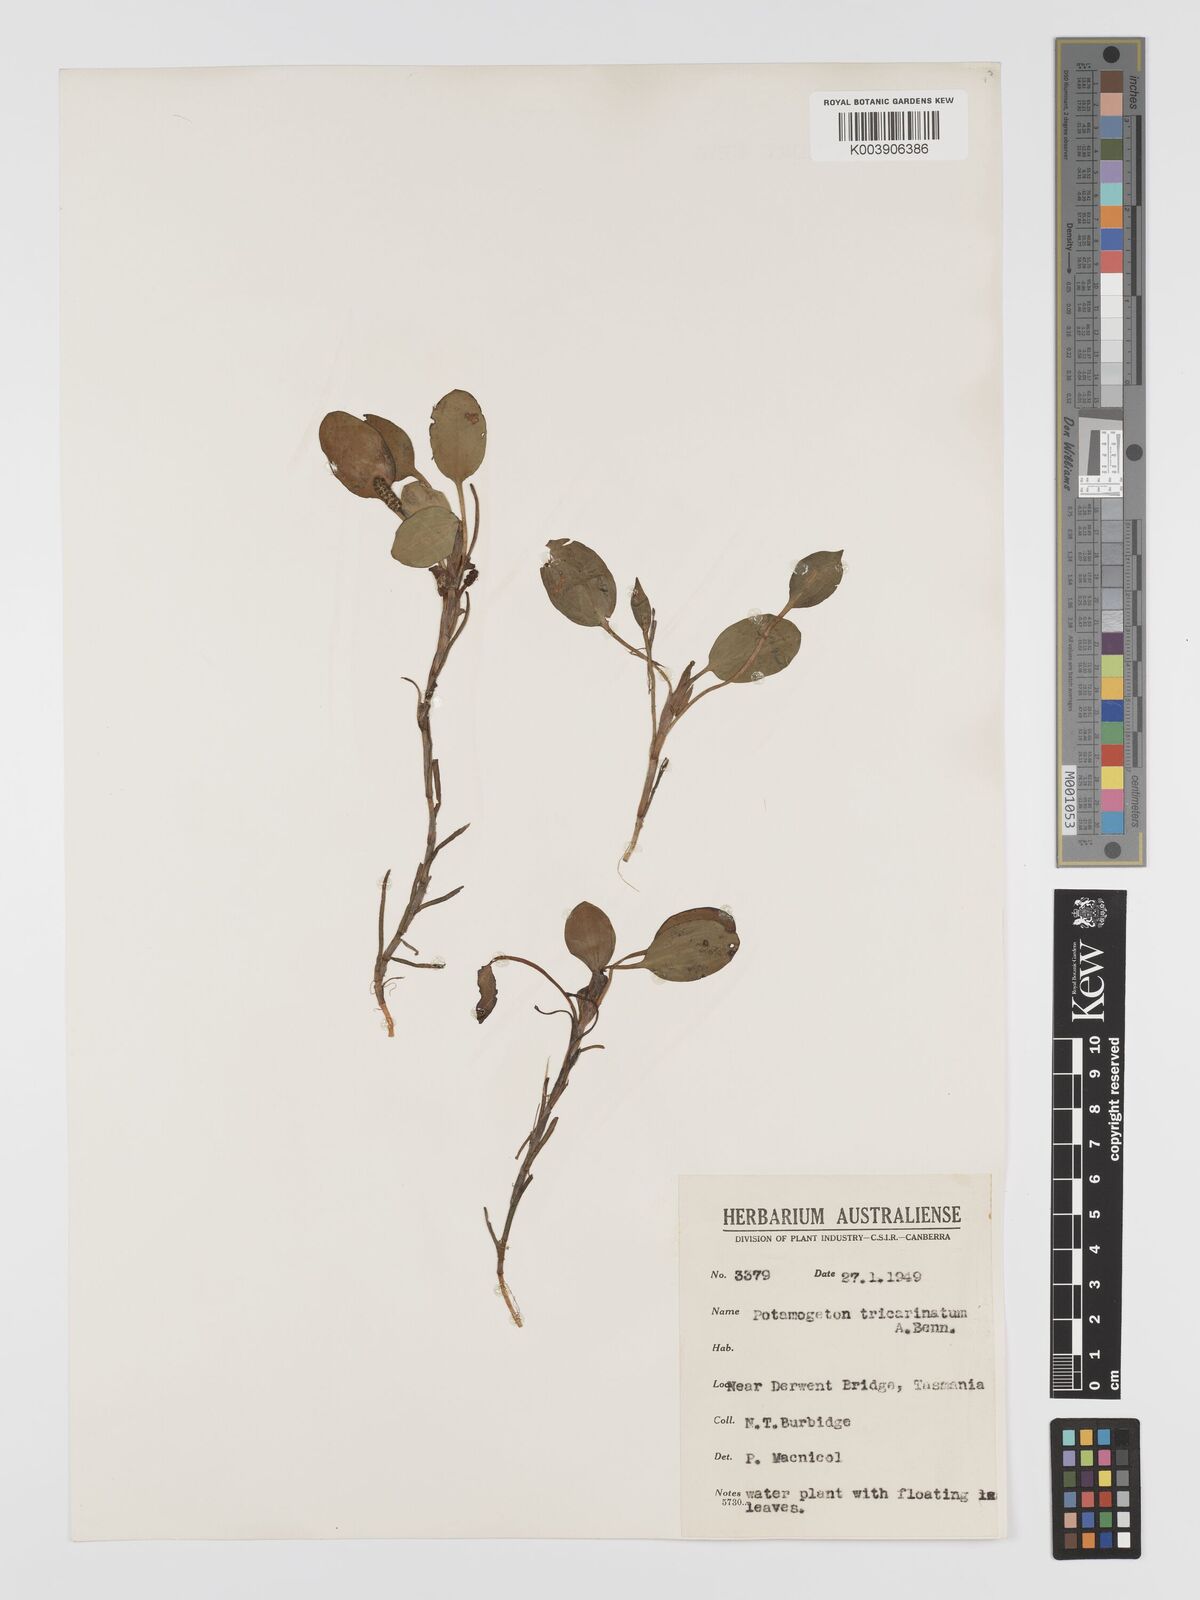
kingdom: Plantae
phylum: Tracheophyta
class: Liliopsida
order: Alismatales
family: Potamogetonaceae
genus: Potamogeton
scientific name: Potamogeton tricarinatus
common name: Pondweed
